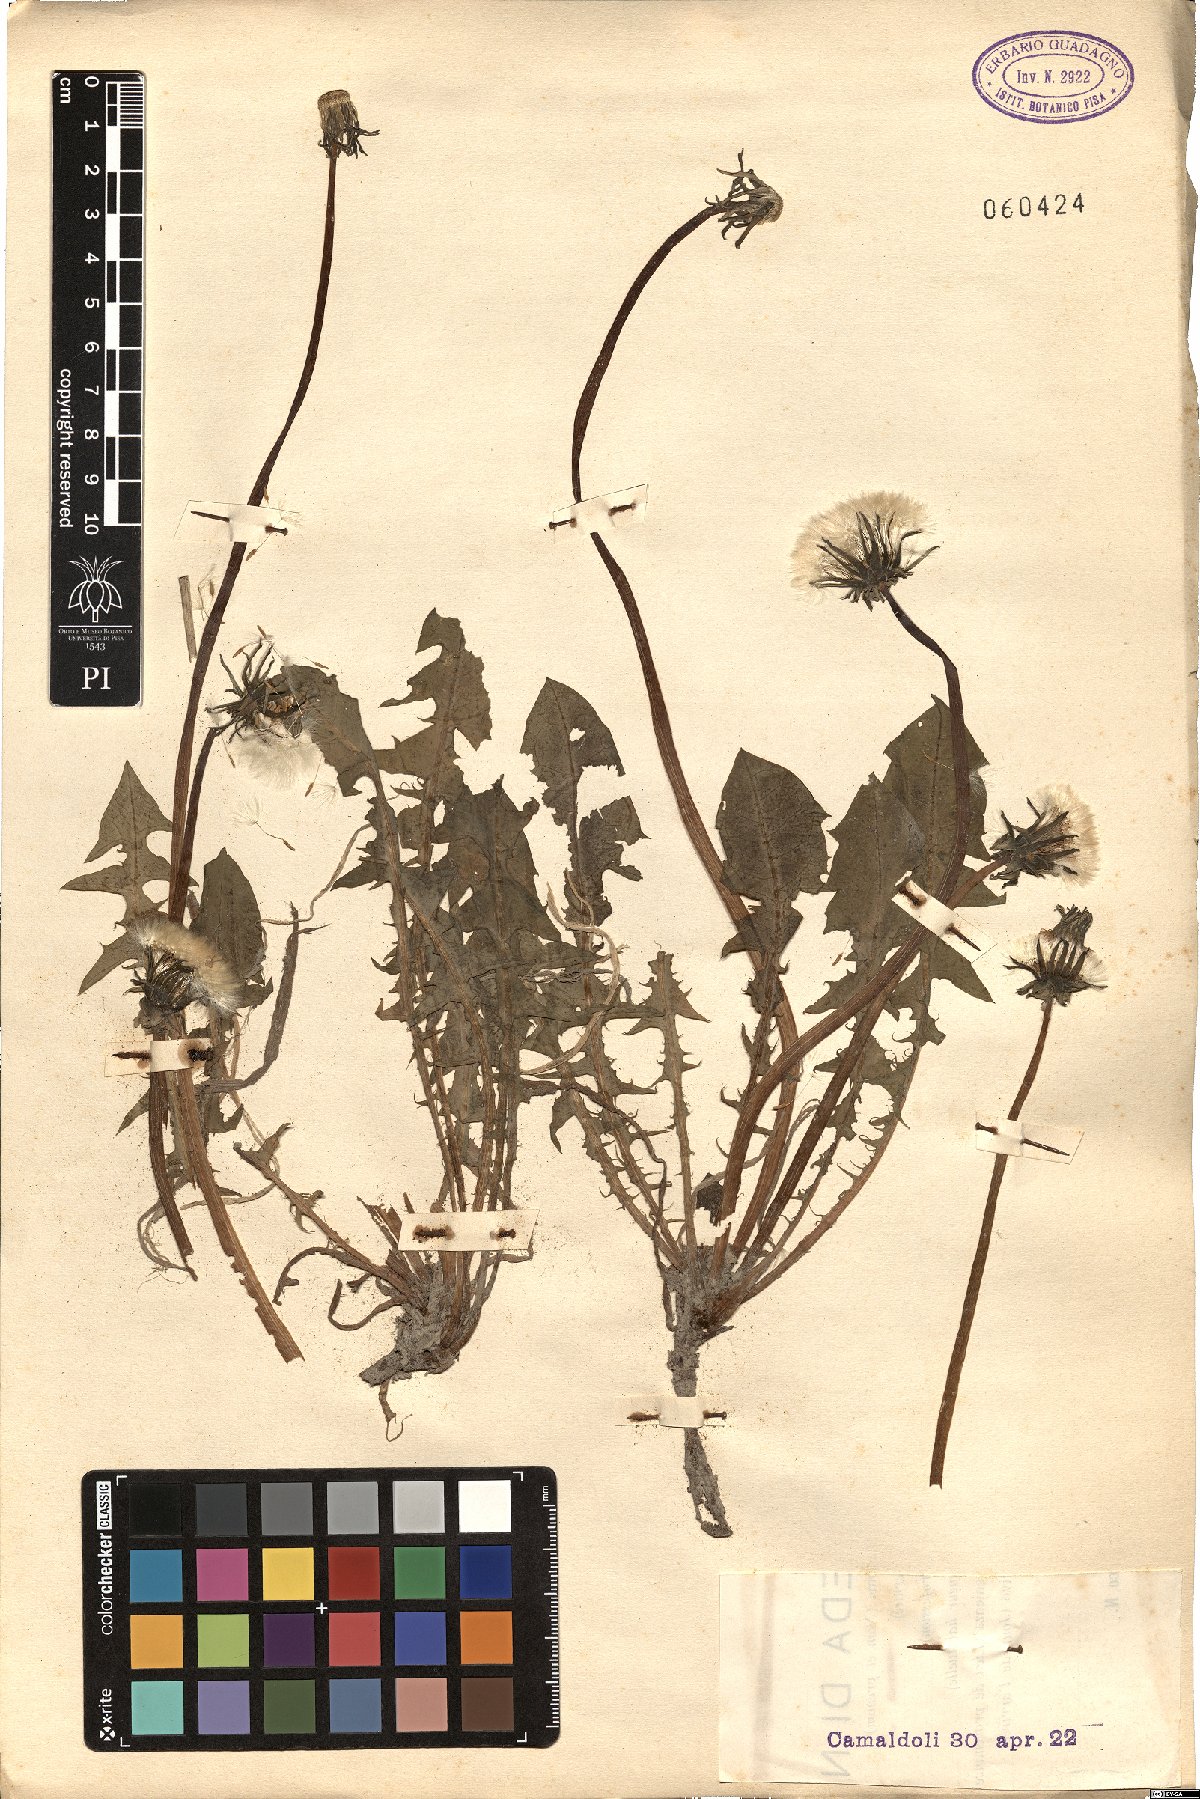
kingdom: Plantae
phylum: Tracheophyta
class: Magnoliopsida
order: Asterales
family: Asteraceae
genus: Taraxacum
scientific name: Taraxacum
